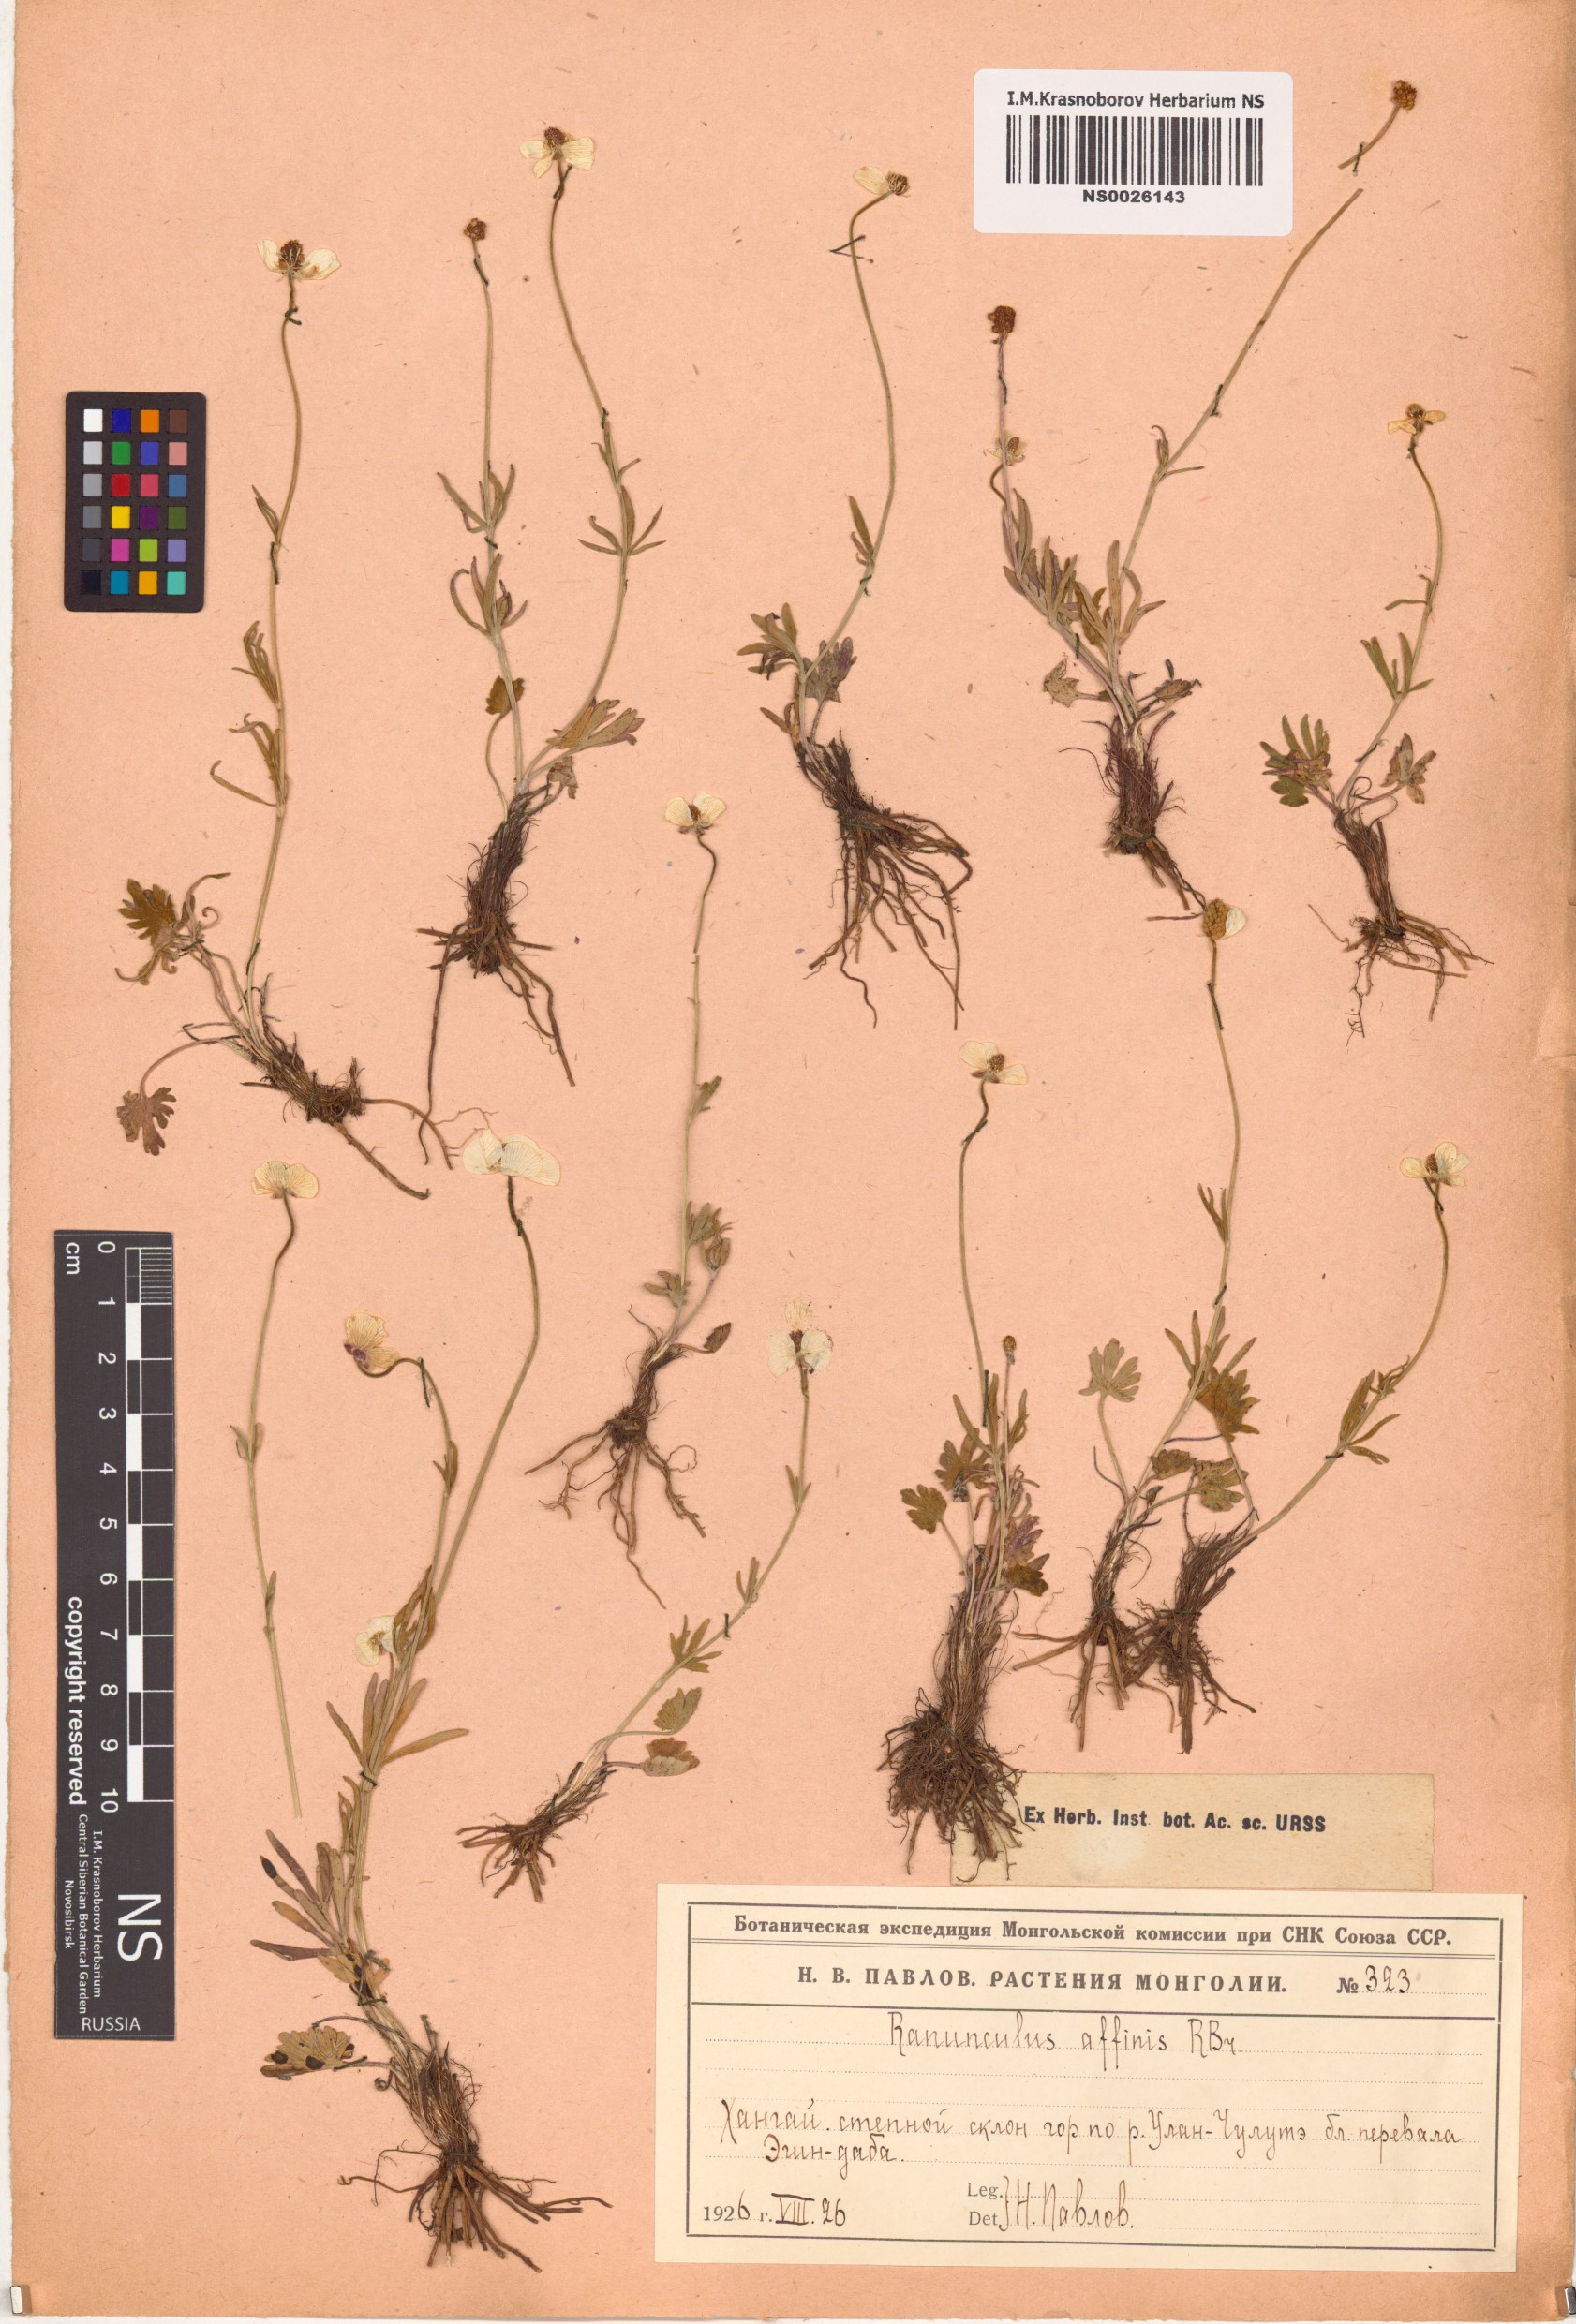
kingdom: Plantae
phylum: Tracheophyta
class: Magnoliopsida
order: Ranunculales
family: Ranunculaceae
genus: Ranunculus
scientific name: Ranunculus arcticus
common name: Bird's-foot buttercup
